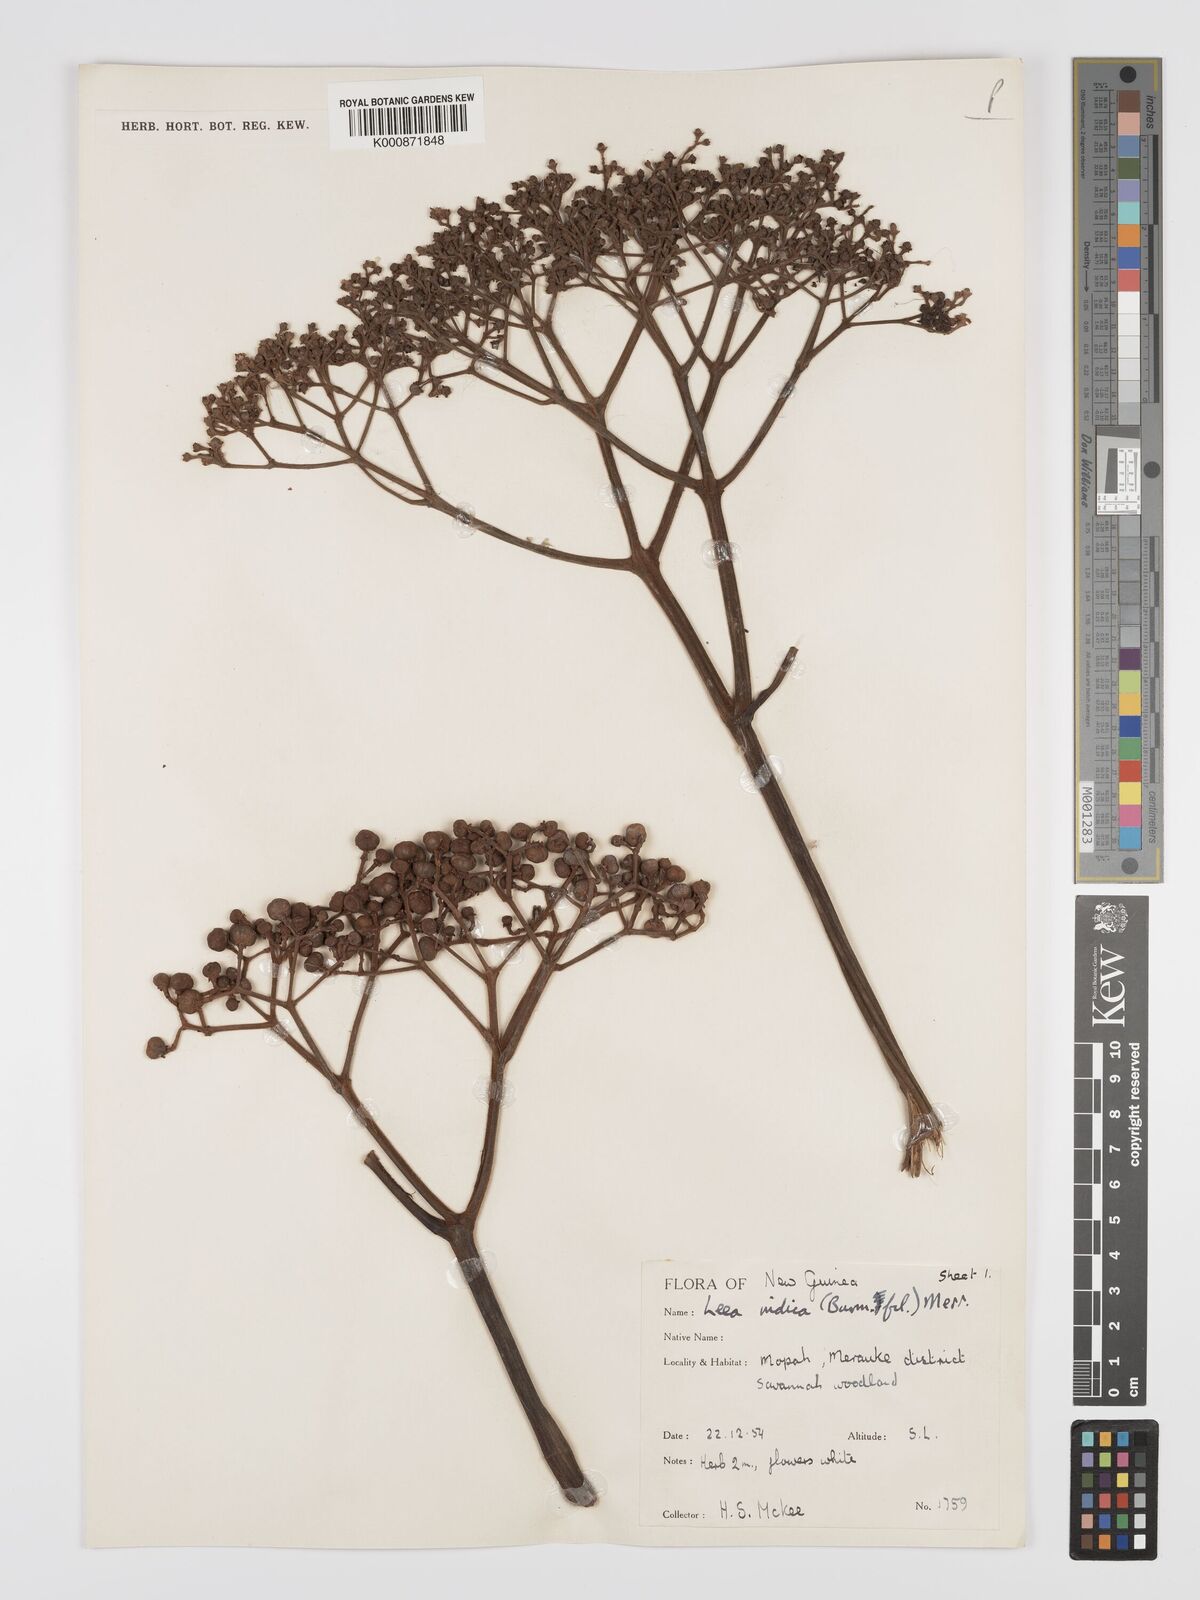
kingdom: Plantae
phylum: Tracheophyta
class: Magnoliopsida
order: Vitales
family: Vitaceae
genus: Leea
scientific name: Leea indica
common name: Bandicoot-berry
